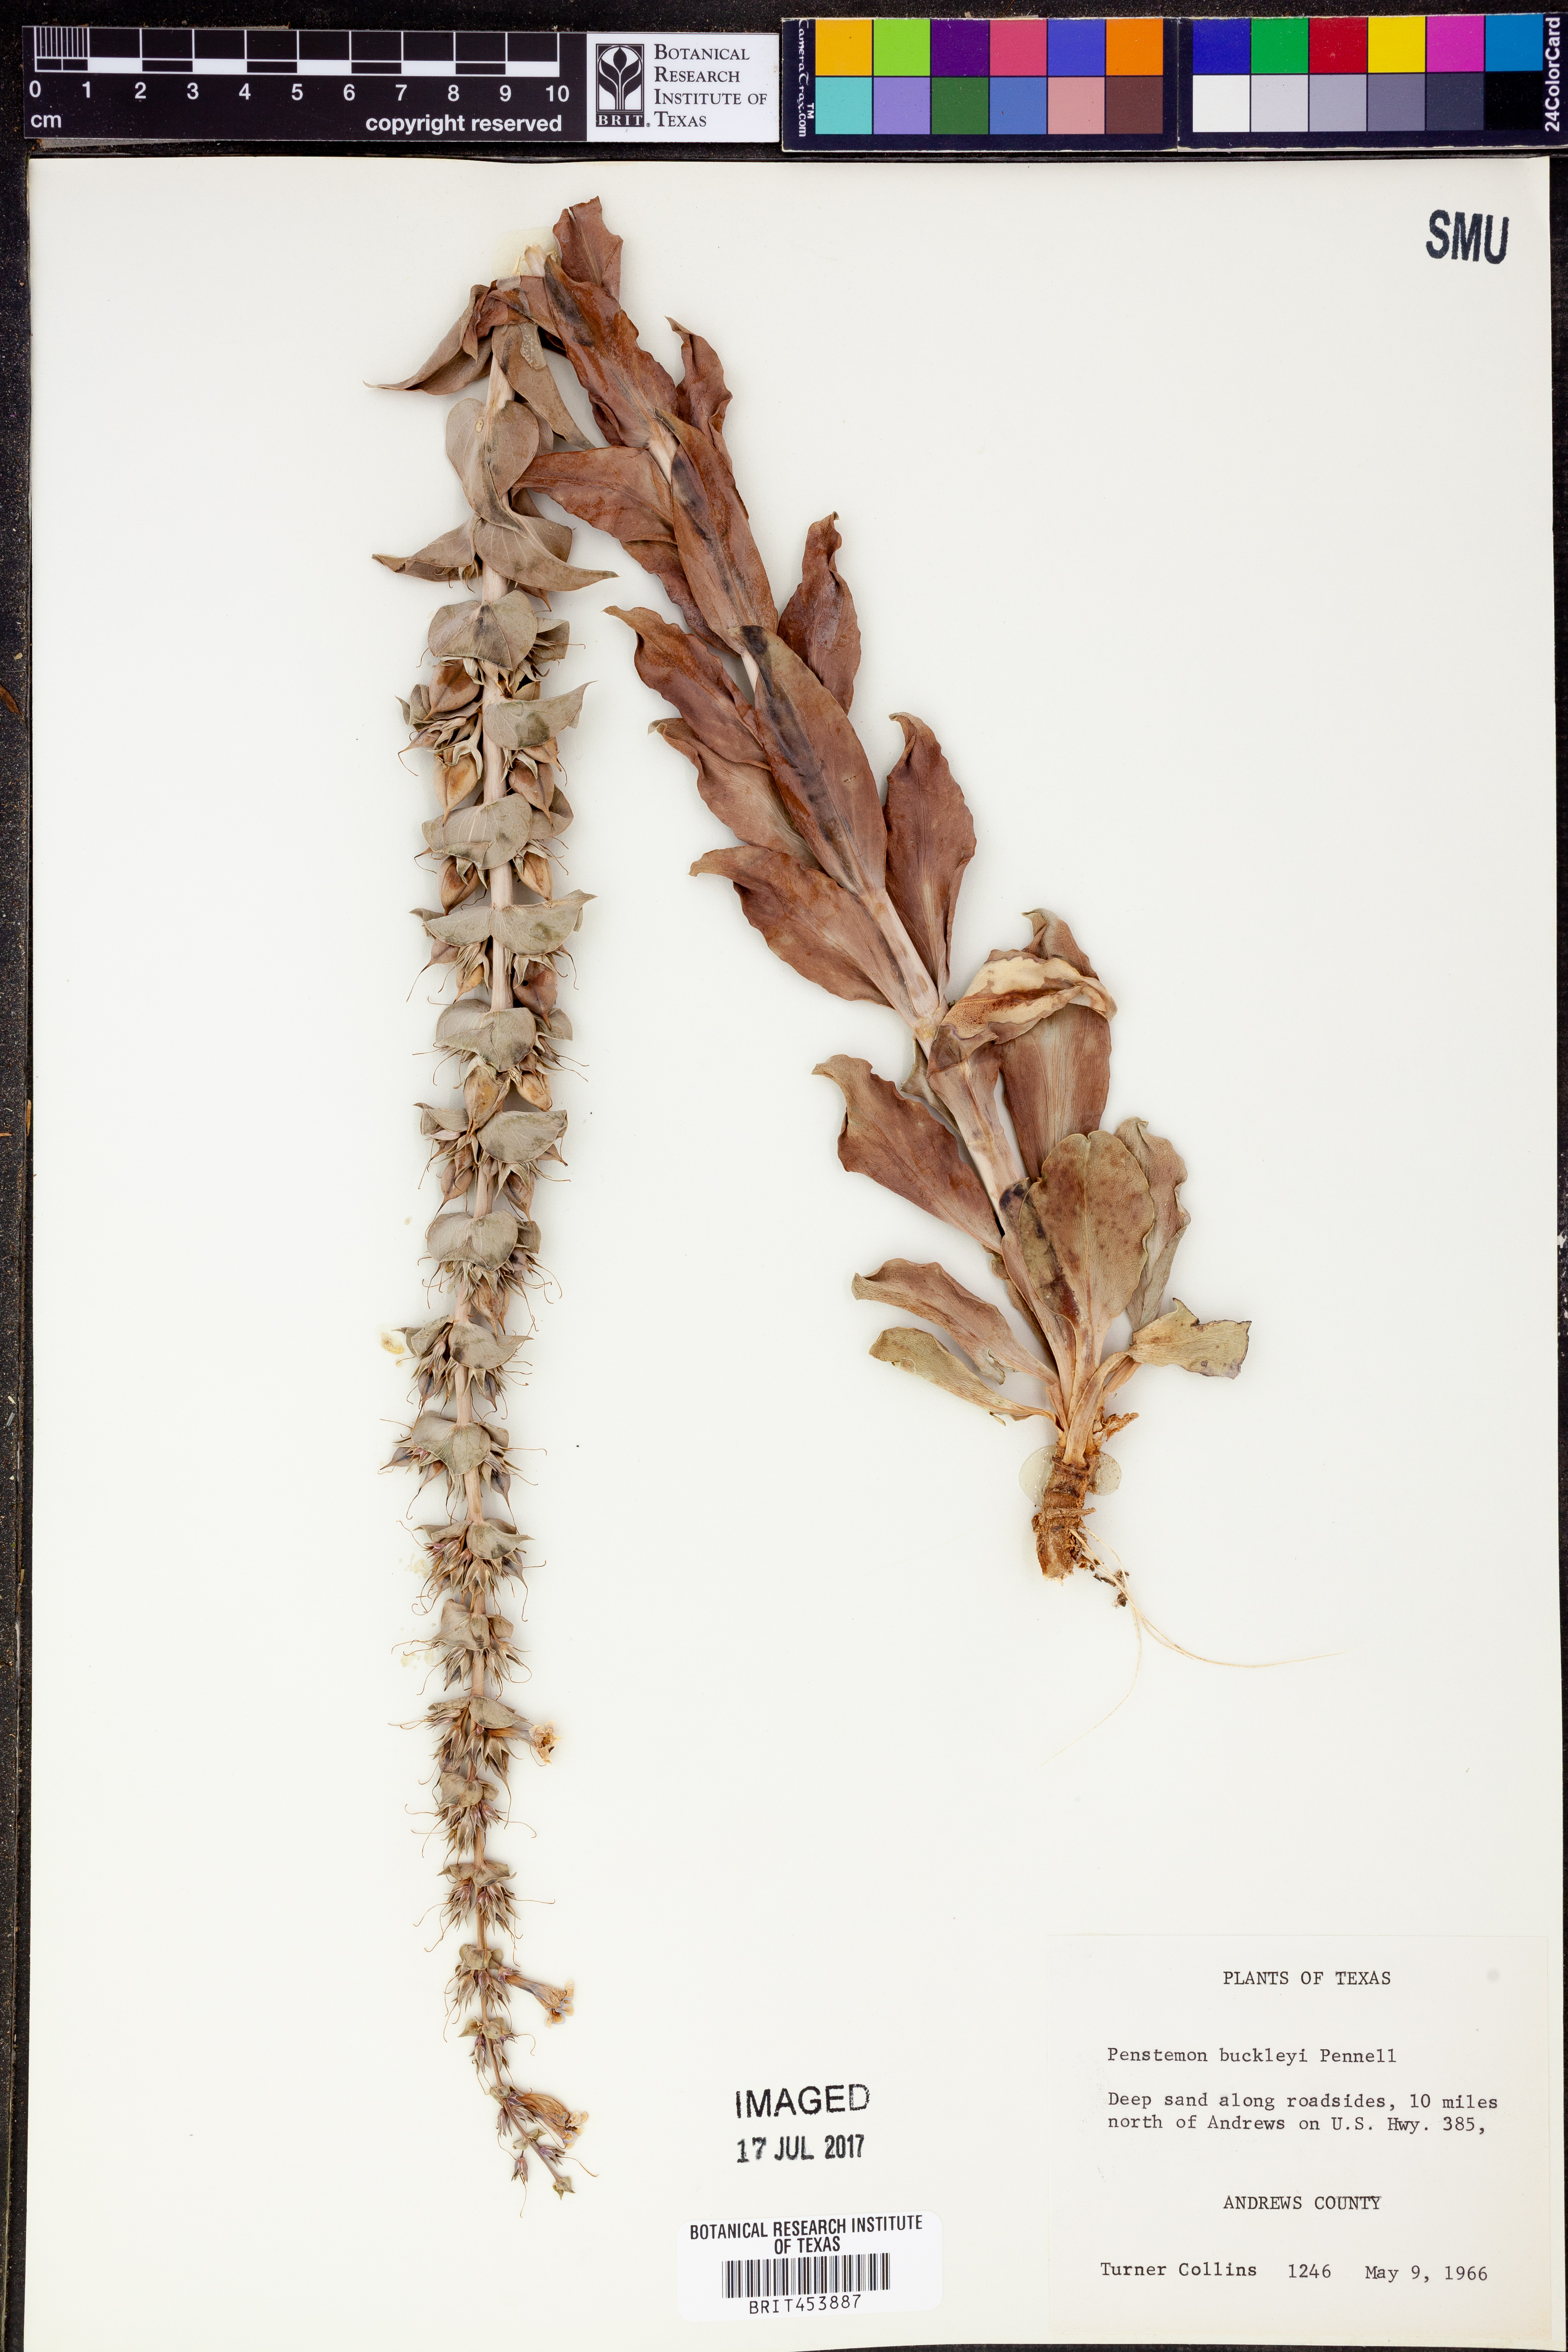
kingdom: Plantae
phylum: Tracheophyta
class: Magnoliopsida
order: Lamiales
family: Plantaginaceae
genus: Penstemon
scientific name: Penstemon buckleyi
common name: Buckley's penstemon
